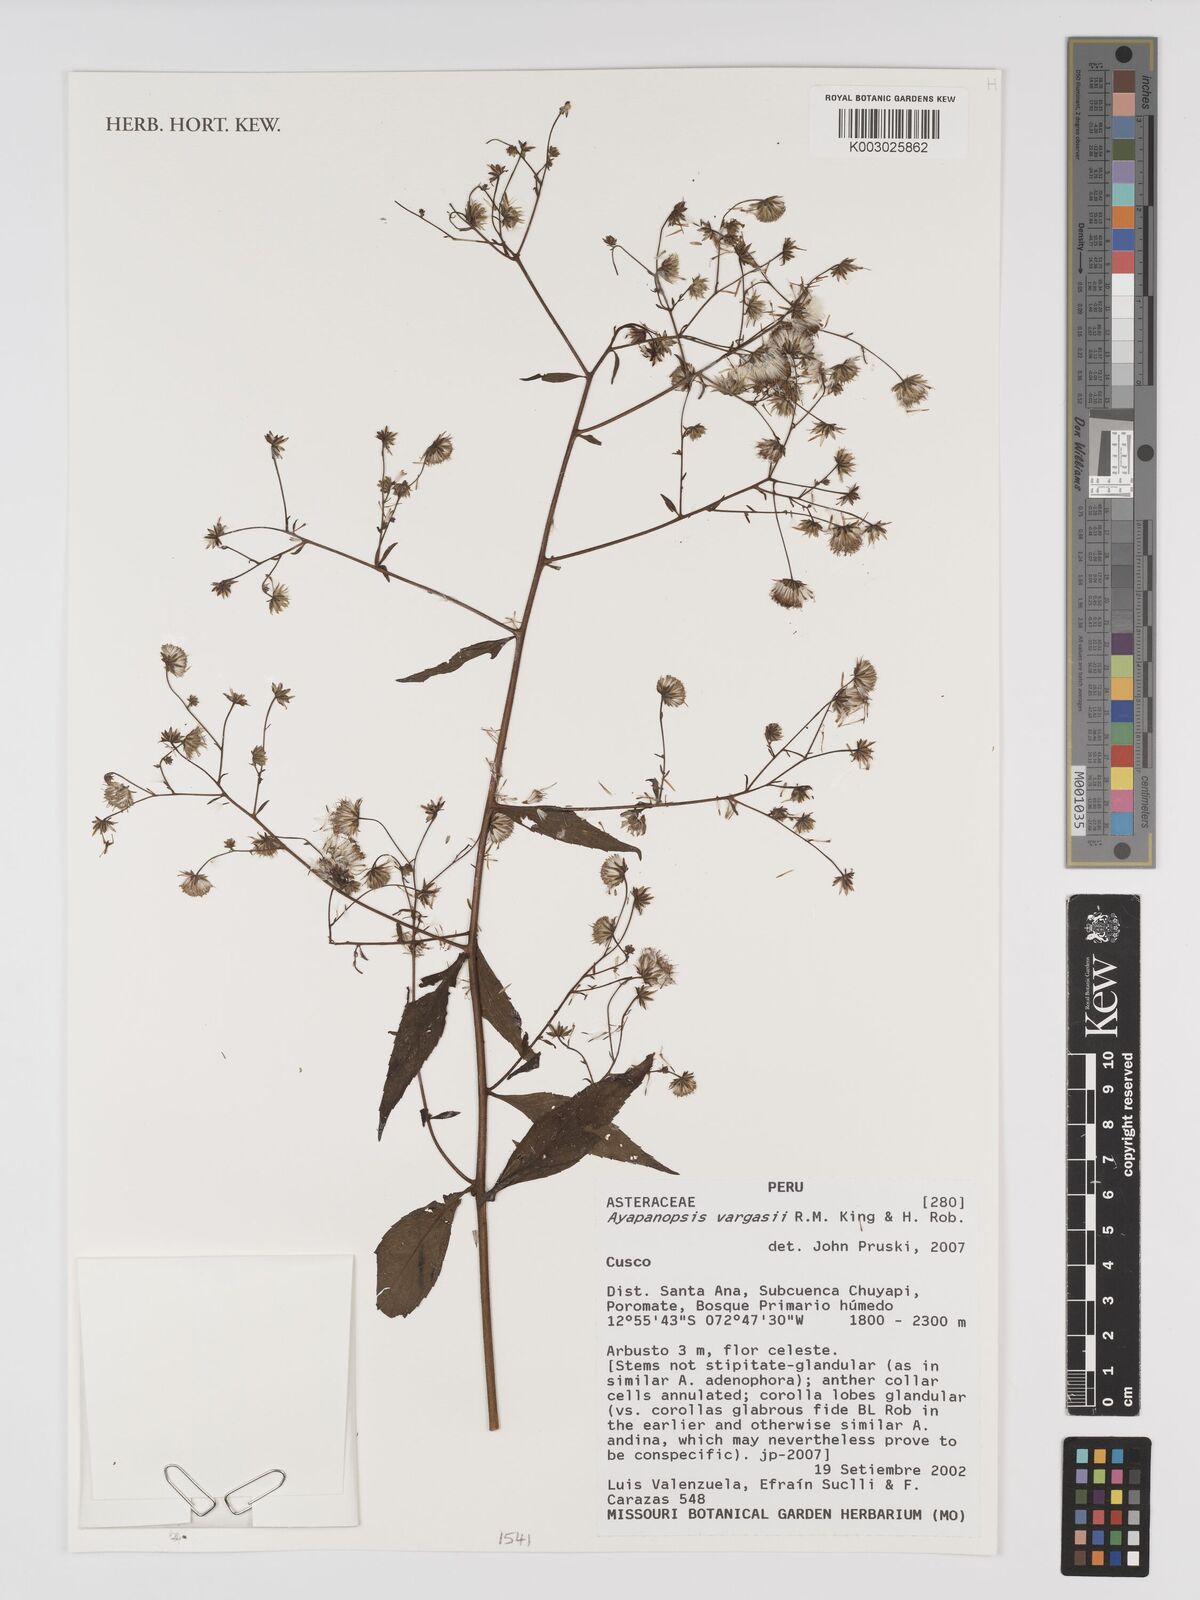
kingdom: Plantae
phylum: Tracheophyta
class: Magnoliopsida
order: Asterales
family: Asteraceae
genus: Ayapanopsis
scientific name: Ayapanopsis vargasii
